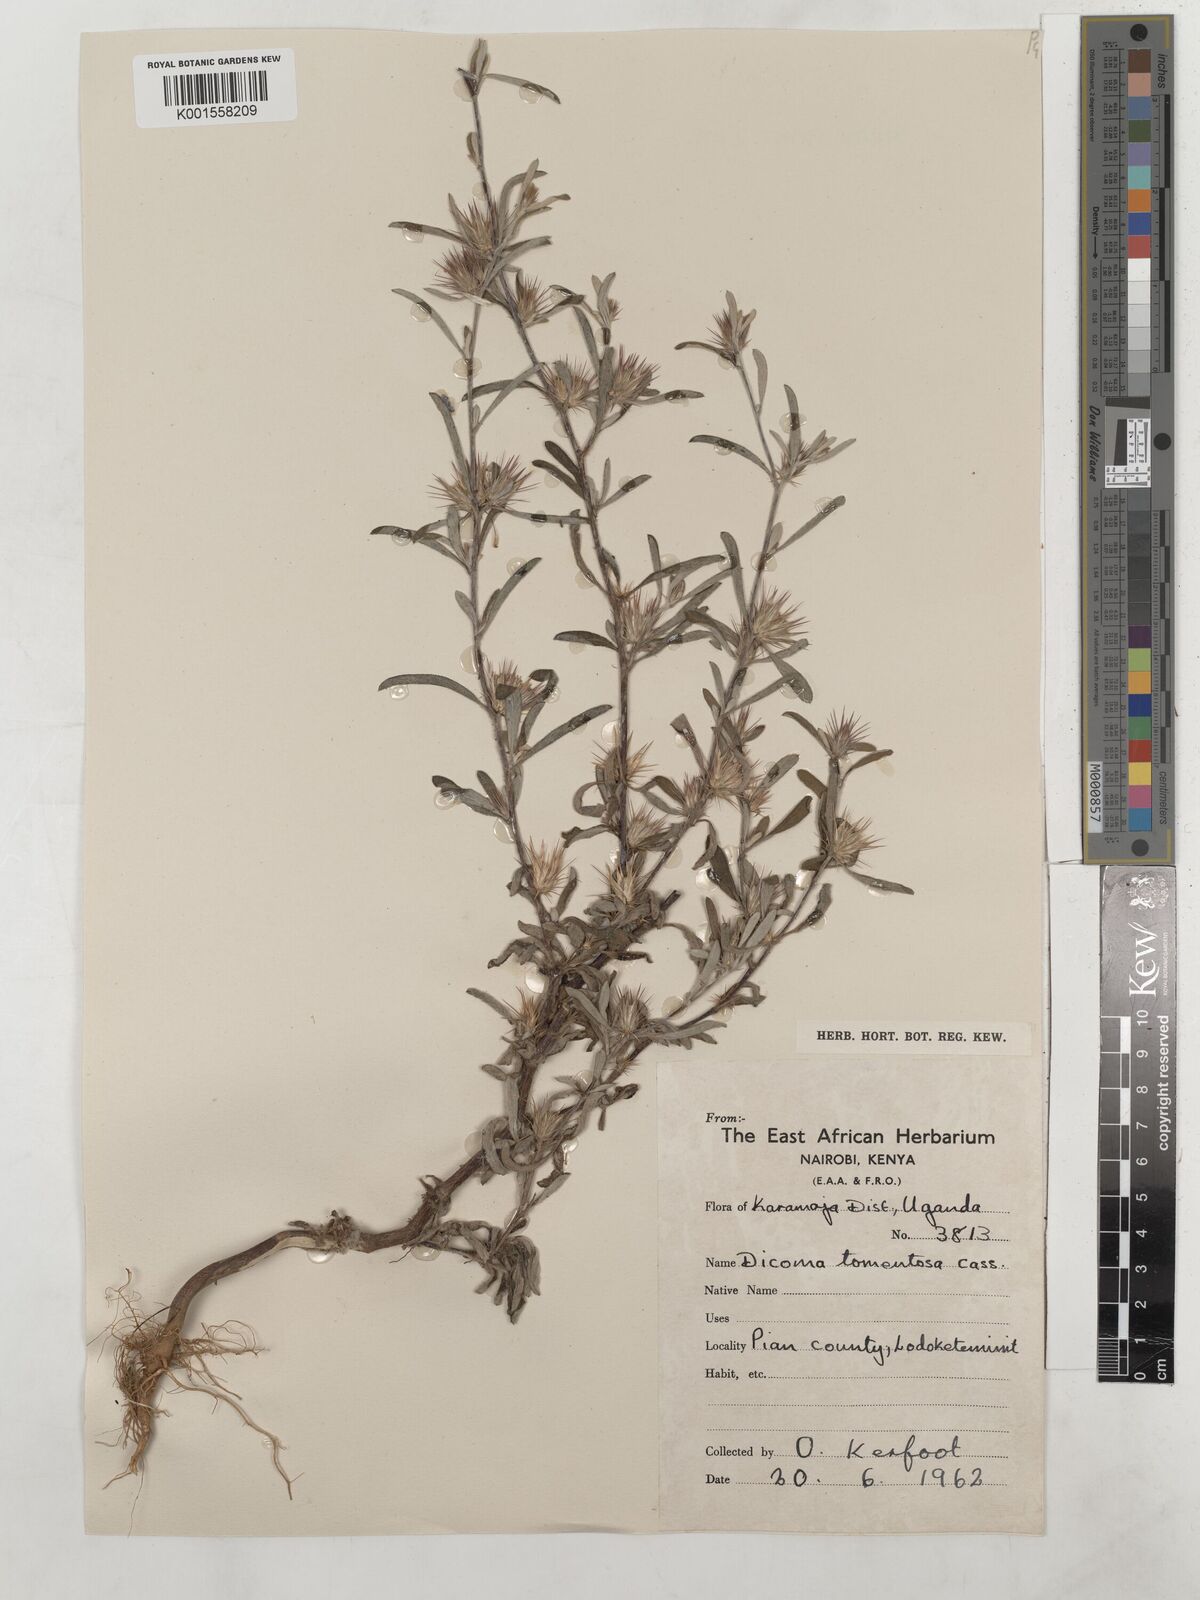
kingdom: Plantae
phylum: Tracheophyta
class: Magnoliopsida
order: Asterales
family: Asteraceae
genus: Dicoma
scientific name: Dicoma tomentosa
